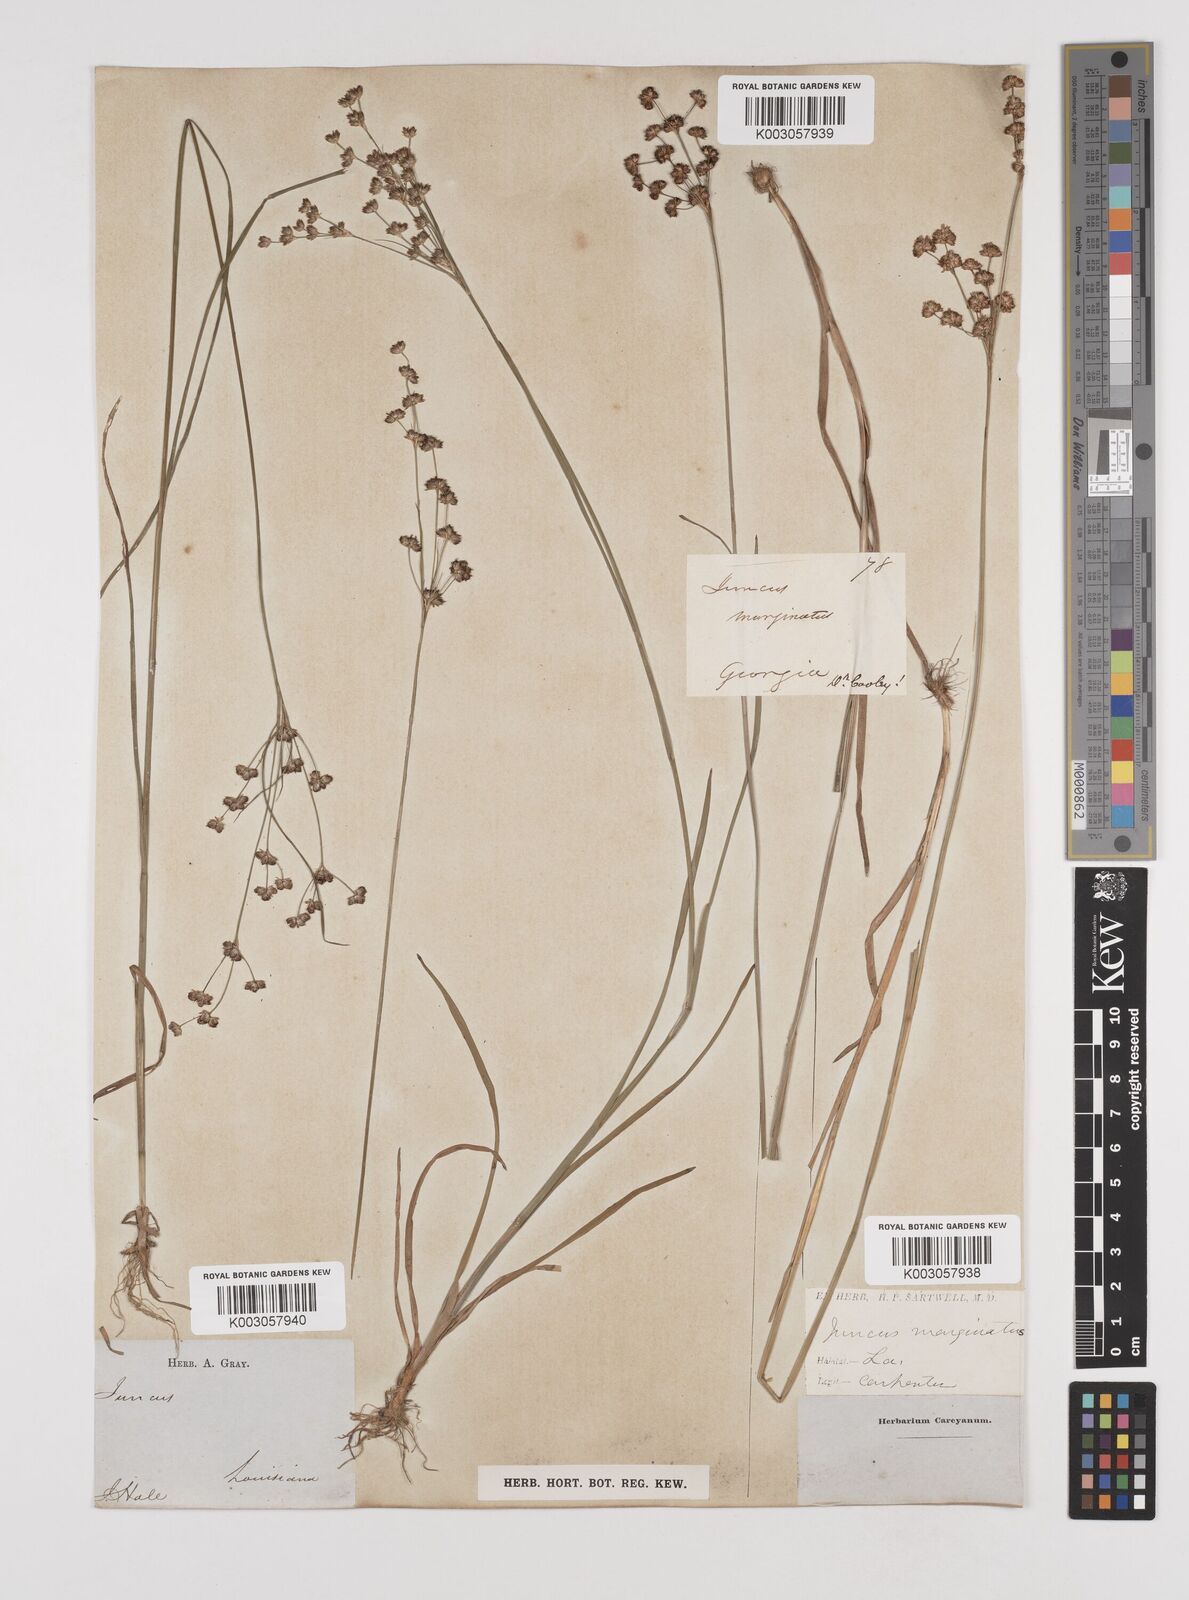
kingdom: Plantae
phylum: Tracheophyta
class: Liliopsida
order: Poales
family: Juncaceae
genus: Juncus
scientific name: Juncus marginatus
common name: Grass-leaf rush
